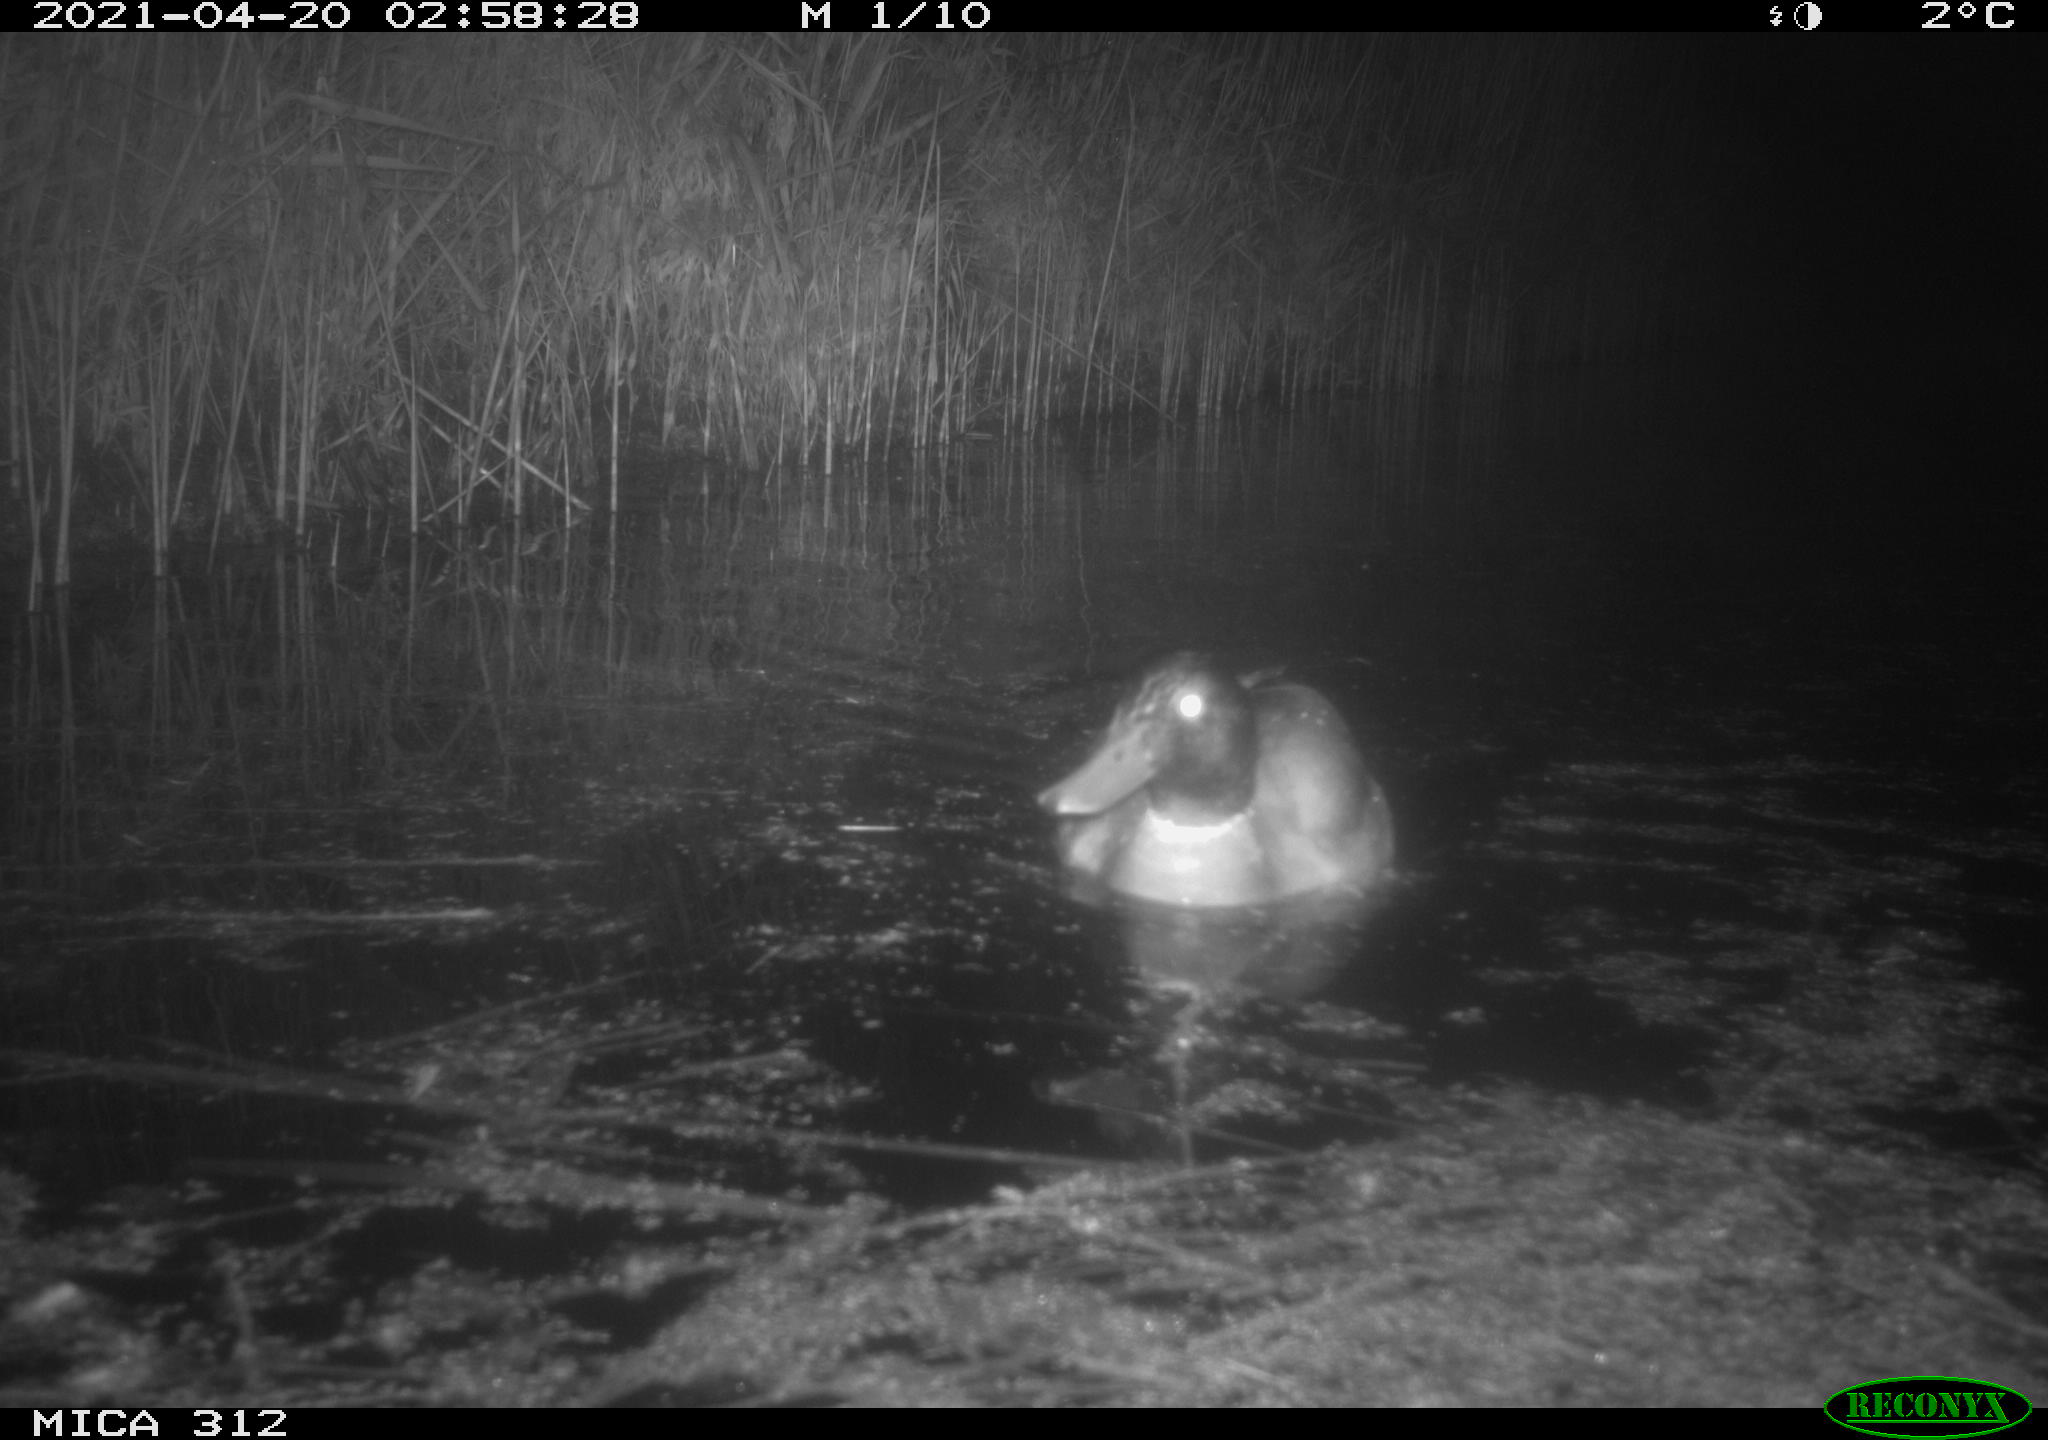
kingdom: Animalia
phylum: Chordata
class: Aves
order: Anseriformes
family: Anatidae
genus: Anas
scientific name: Anas platyrhynchos
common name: Mallard
